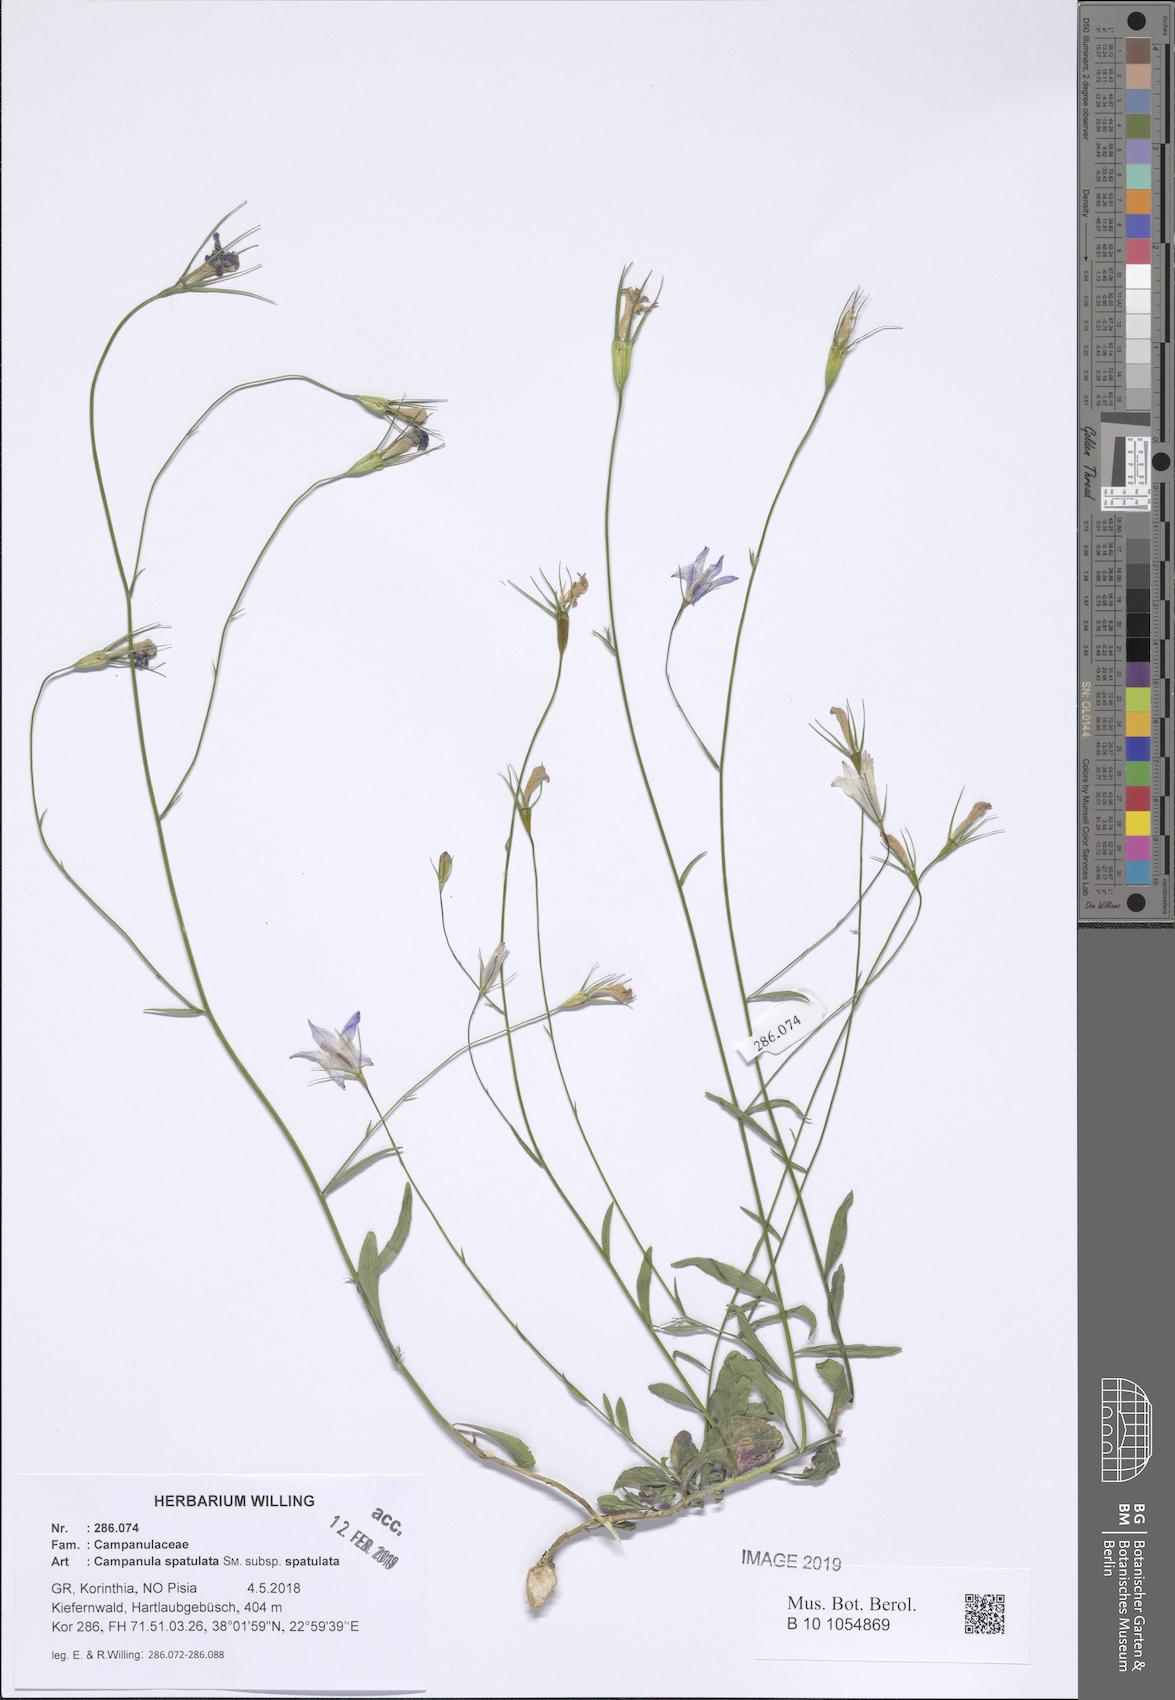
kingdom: Plantae
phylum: Tracheophyta
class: Magnoliopsida
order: Asterales
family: Campanulaceae
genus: Campanula
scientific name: Campanula spatulata
